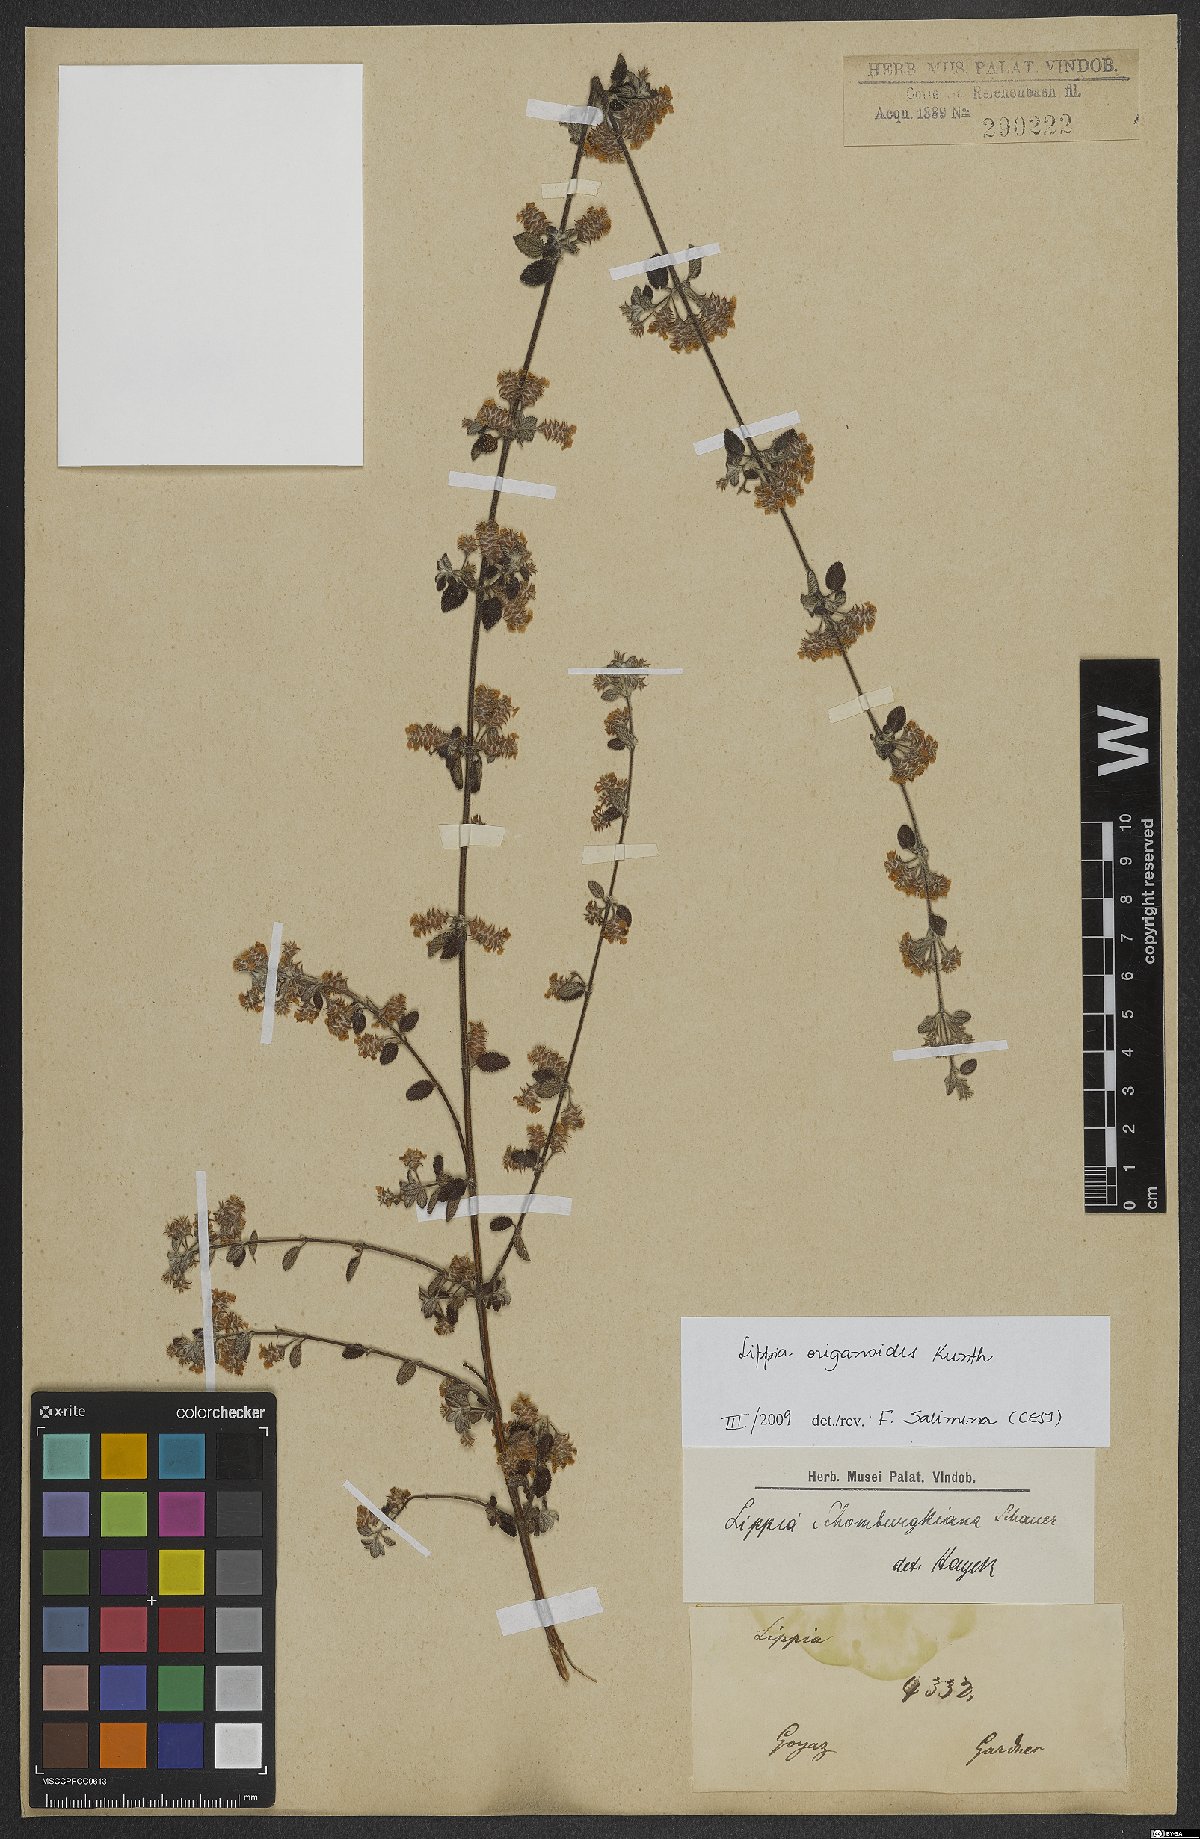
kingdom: Plantae
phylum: Tracheophyta
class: Magnoliopsida
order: Lamiales
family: Verbenaceae
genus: Lippia
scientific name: Lippia origanoides
